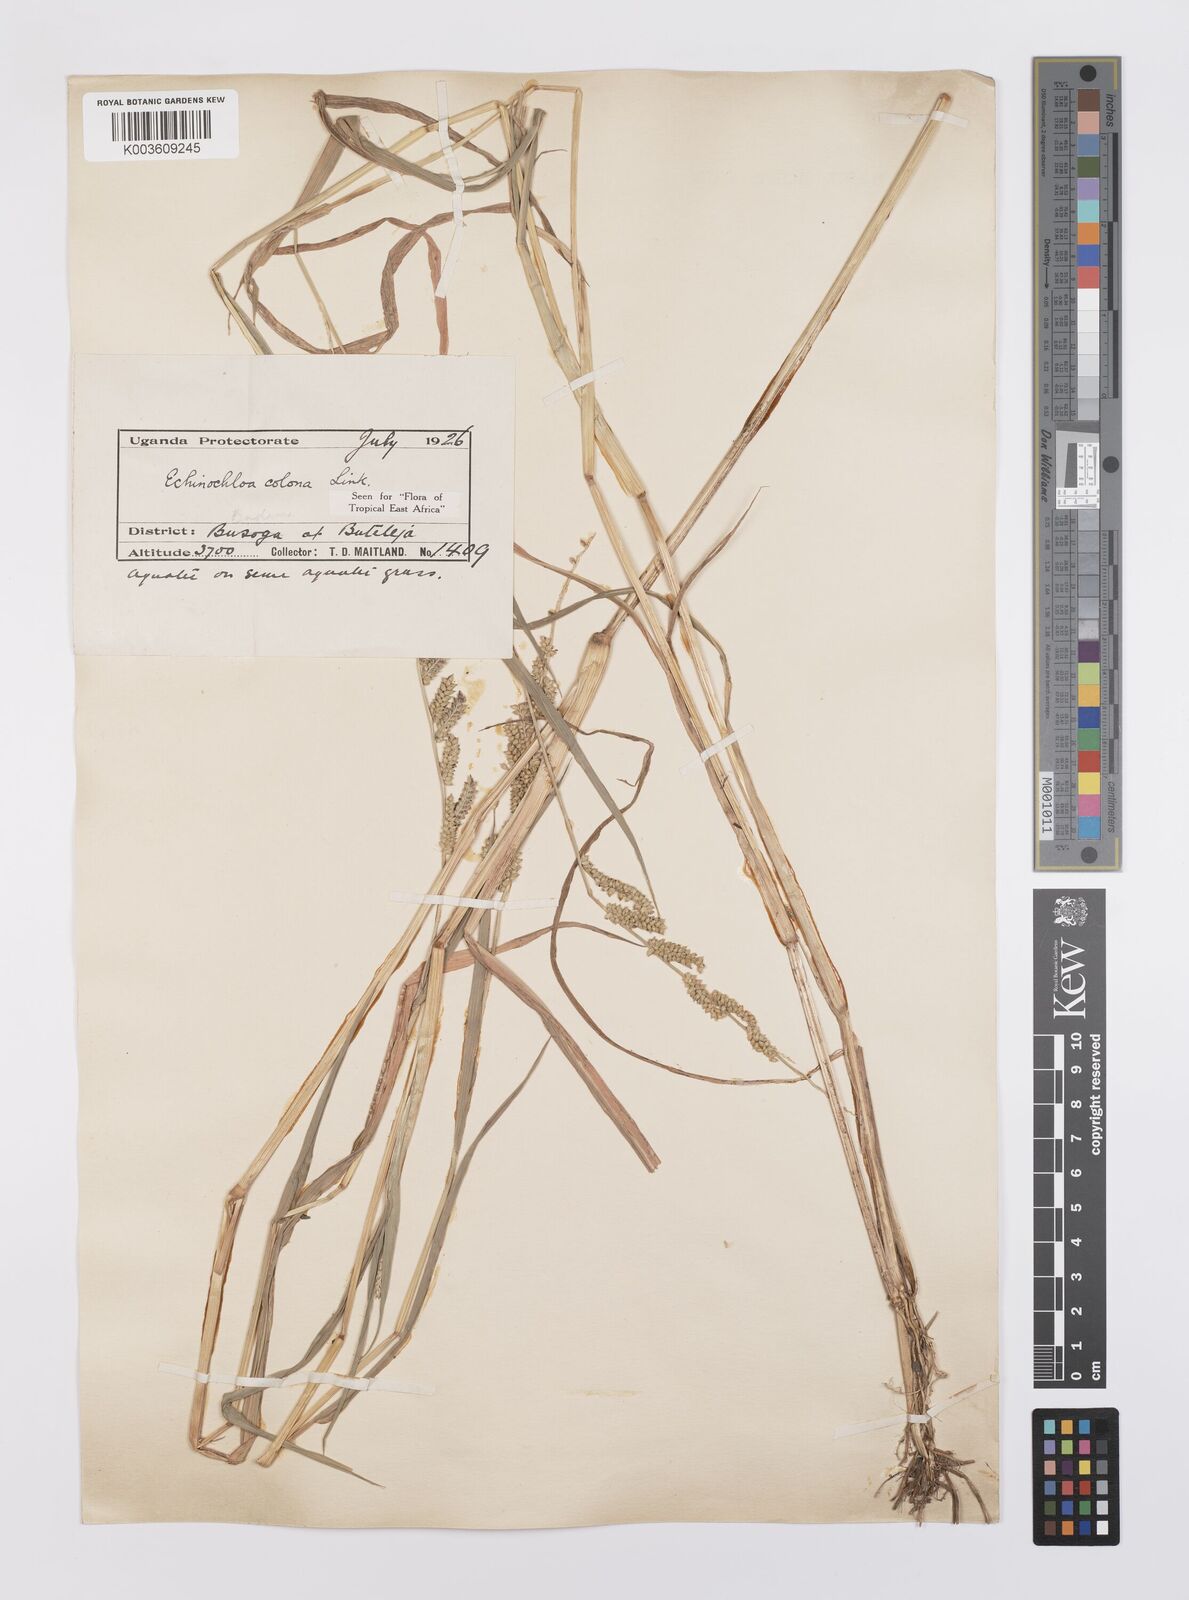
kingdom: Plantae
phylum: Tracheophyta
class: Liliopsida
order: Poales
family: Poaceae
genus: Echinochloa
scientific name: Echinochloa colonum
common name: Jungle rice
